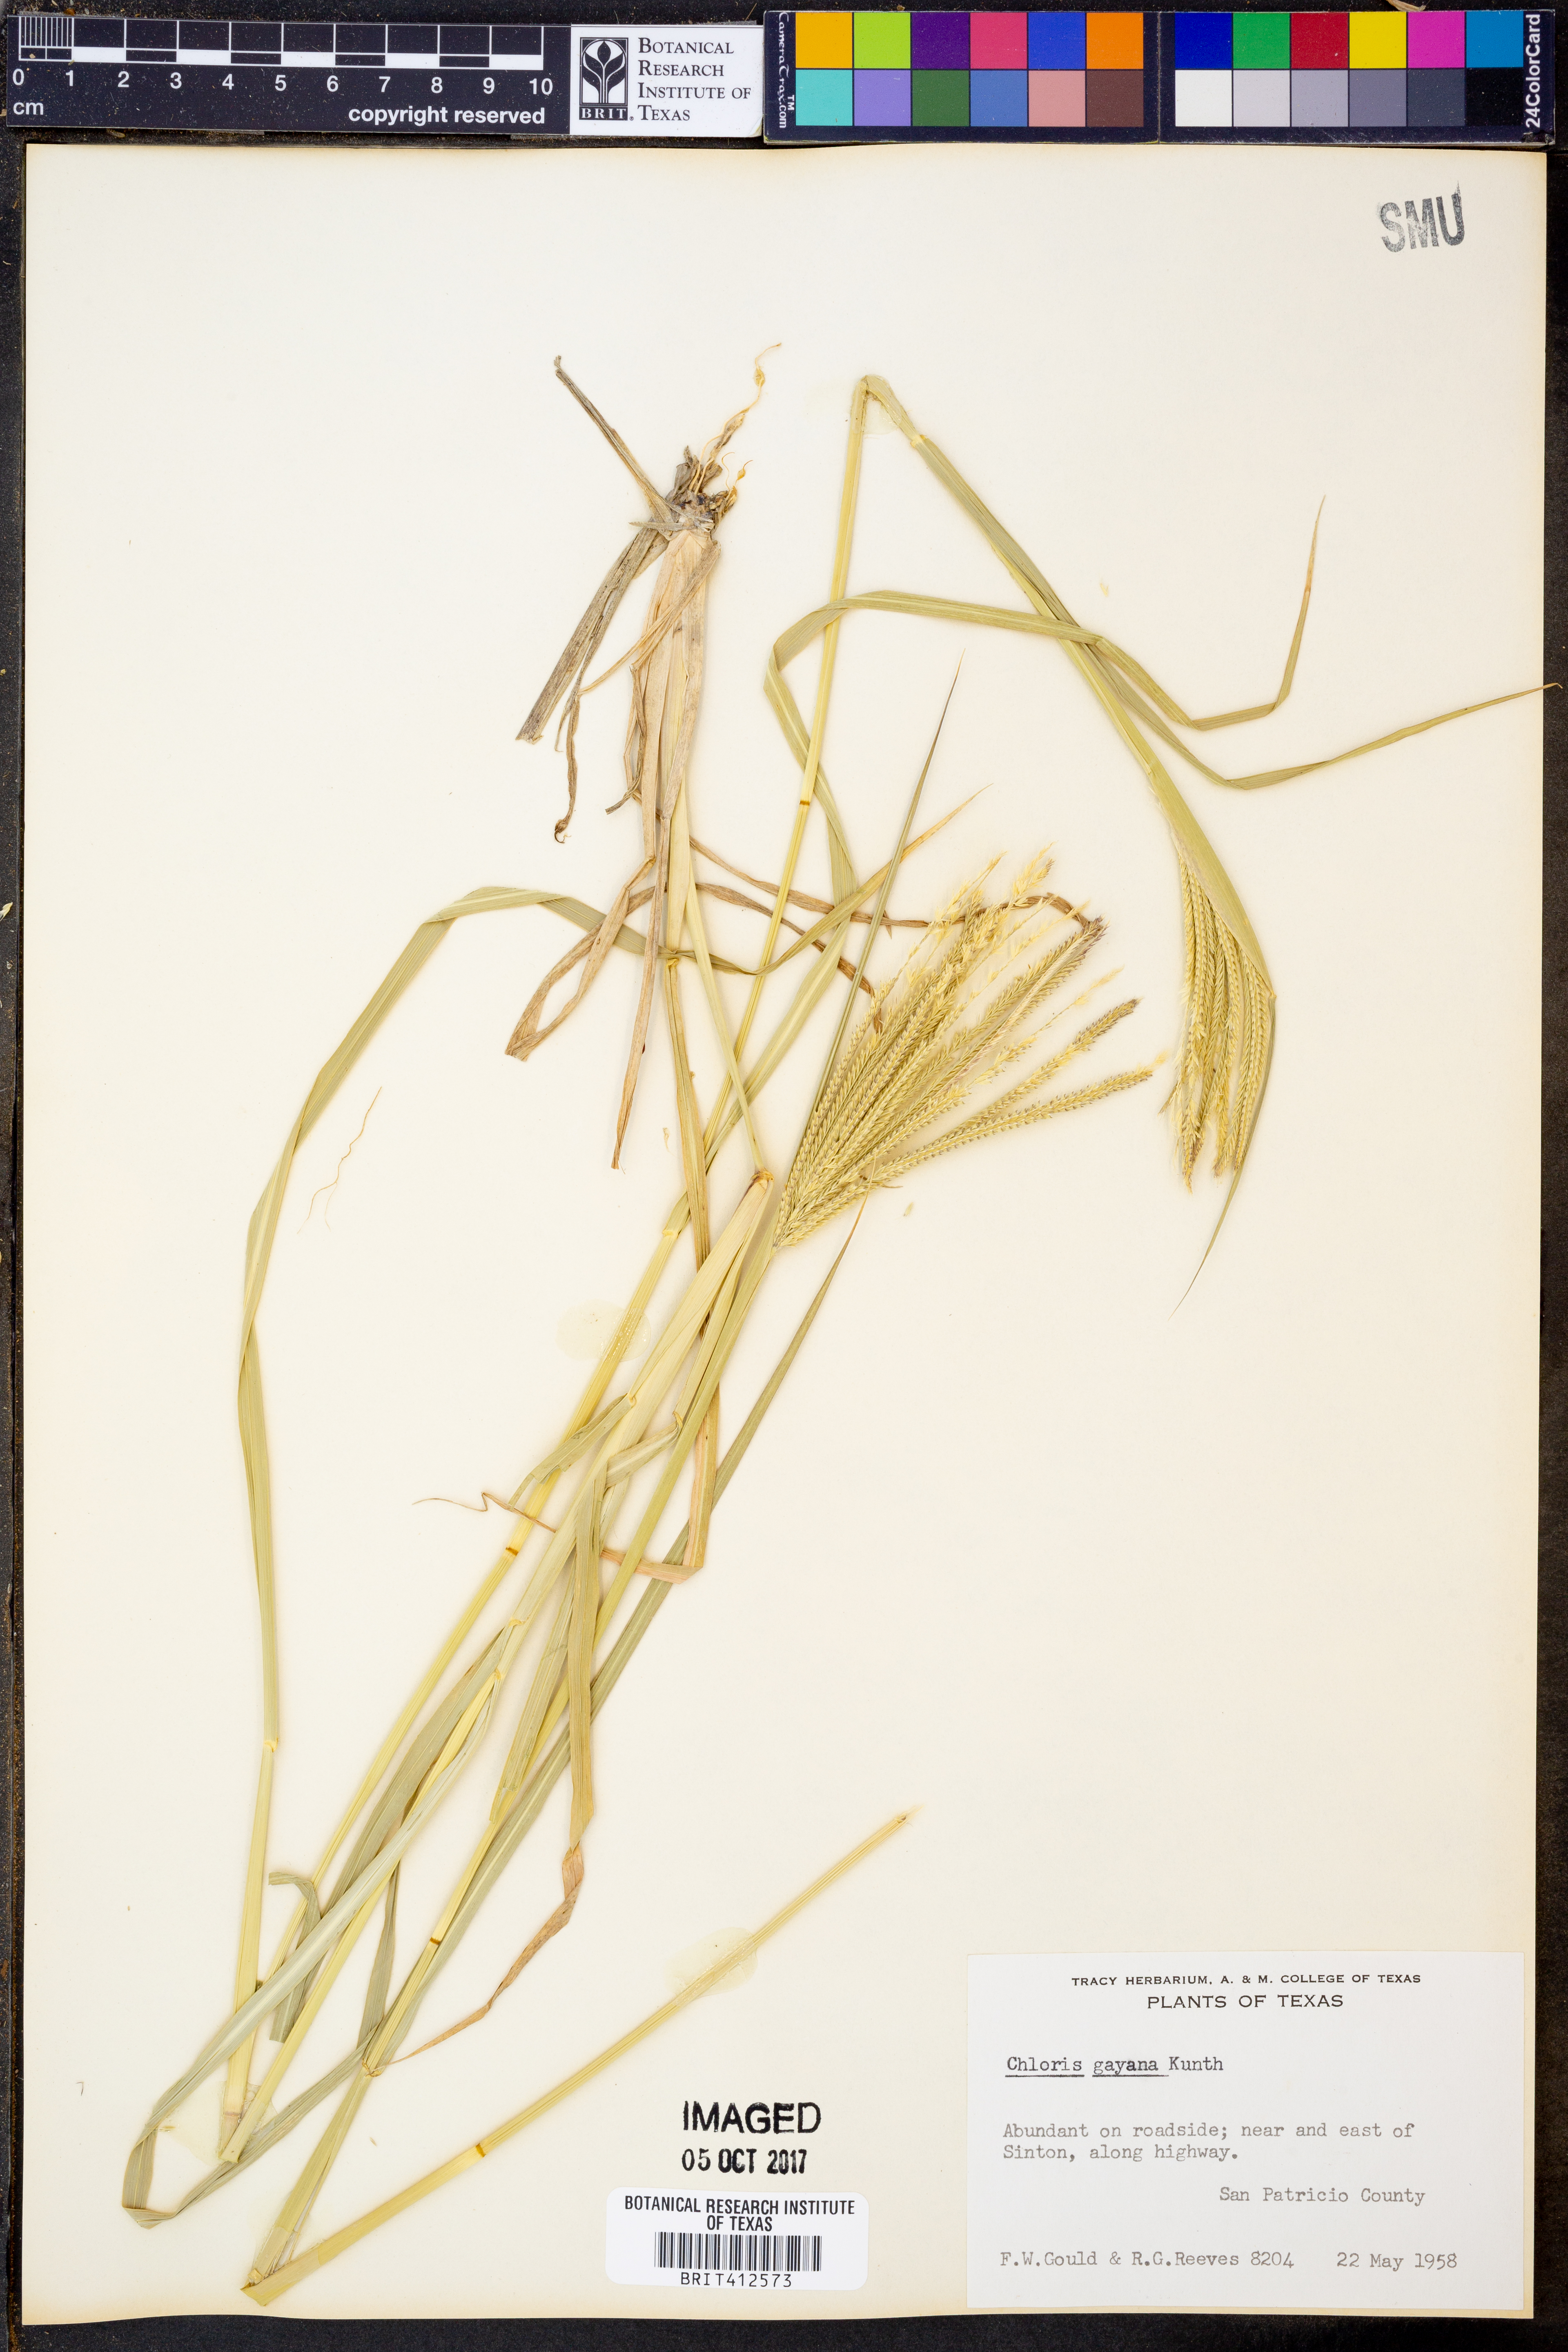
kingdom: Plantae
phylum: Tracheophyta
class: Liliopsida
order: Poales
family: Poaceae
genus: Chloris
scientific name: Chloris gayana
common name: Rhodes grass
